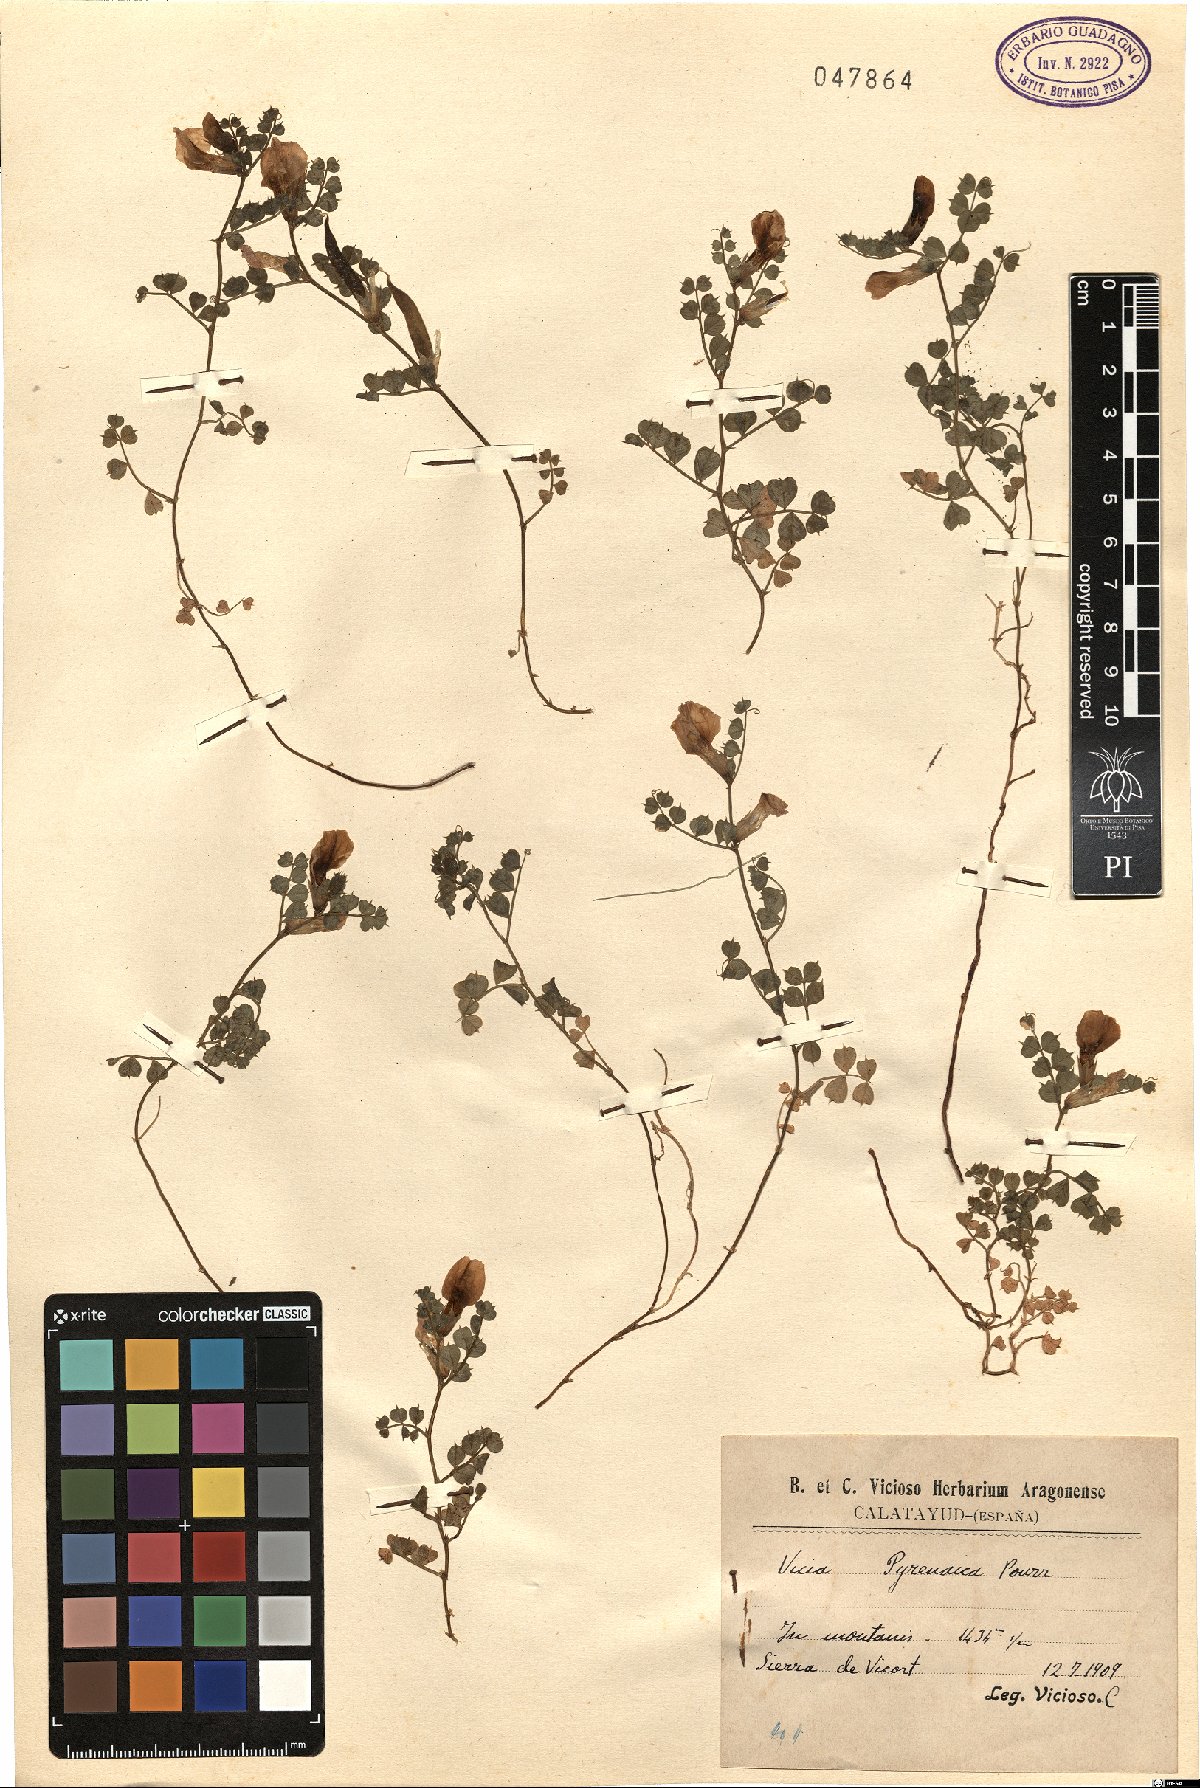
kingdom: Plantae
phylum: Tracheophyta
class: Magnoliopsida
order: Fabales
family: Fabaceae
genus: Vicia
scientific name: Vicia pyrenaica
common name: Pyrenean vetch
